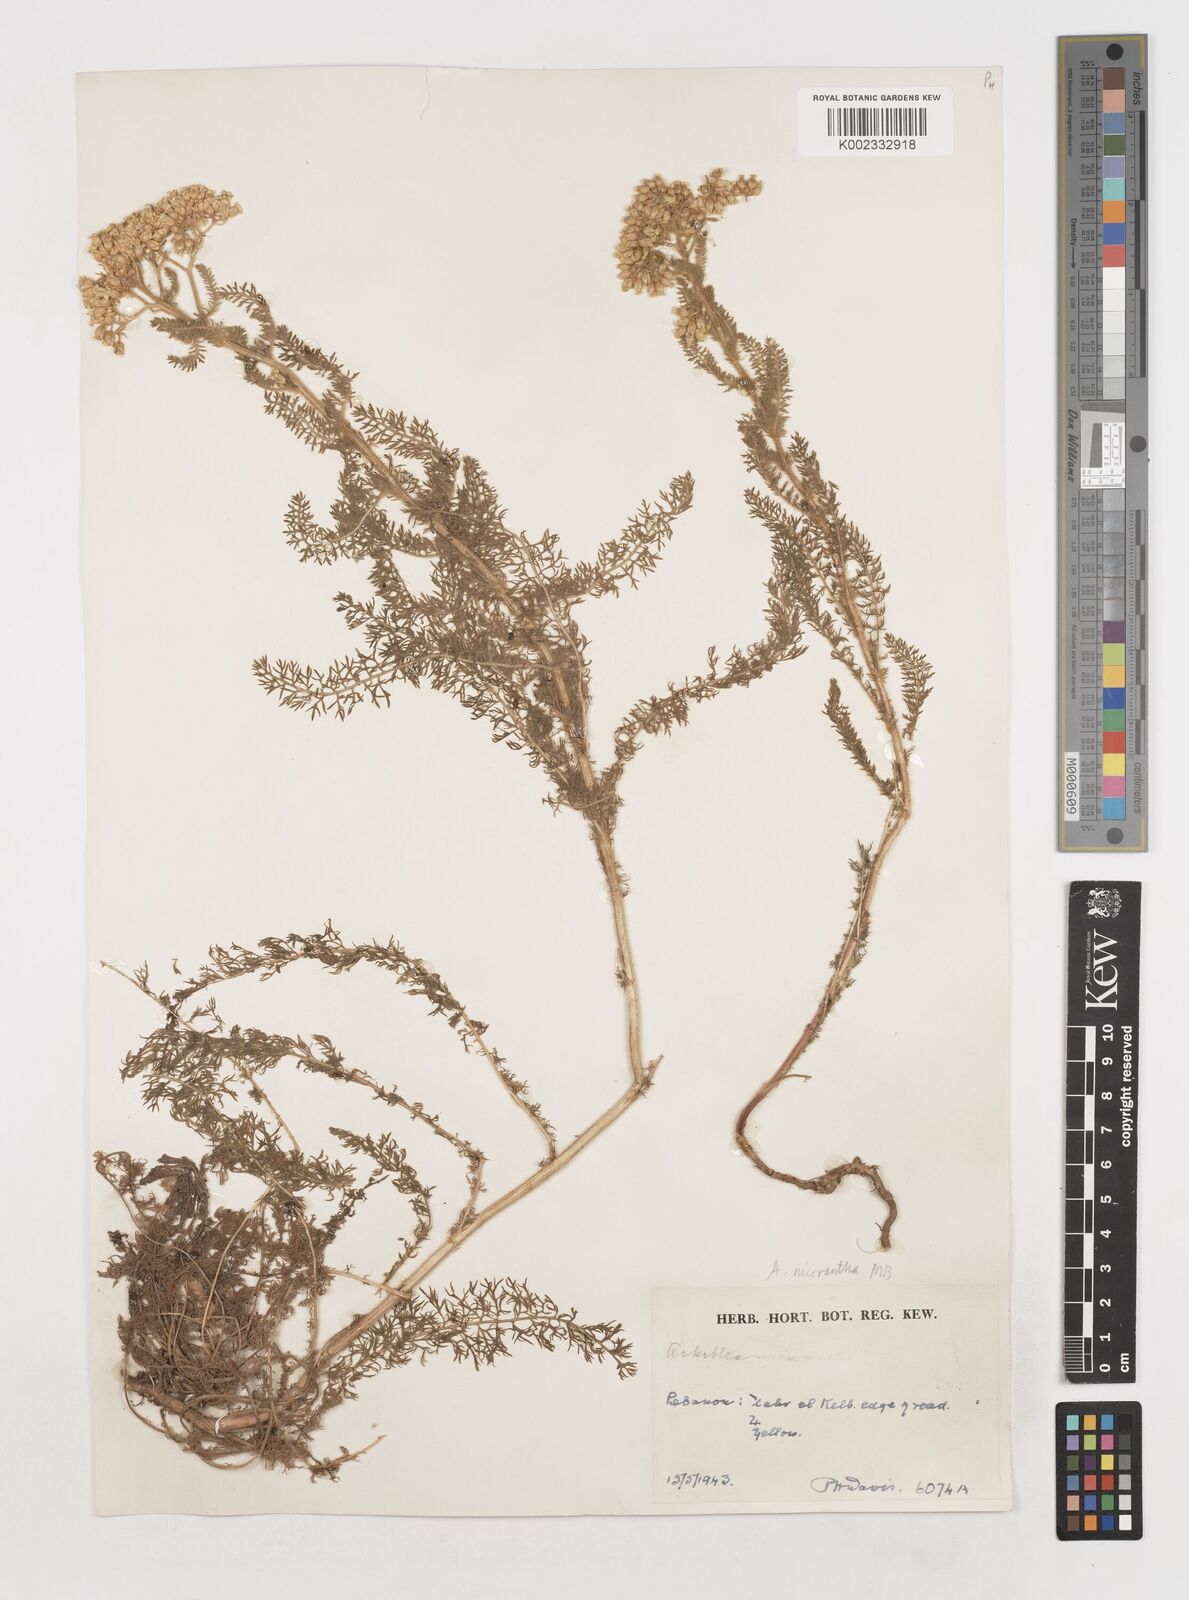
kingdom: Plantae
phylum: Tracheophyta
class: Magnoliopsida
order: Asterales
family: Asteraceae
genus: Achillea
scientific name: Achillea arabica
